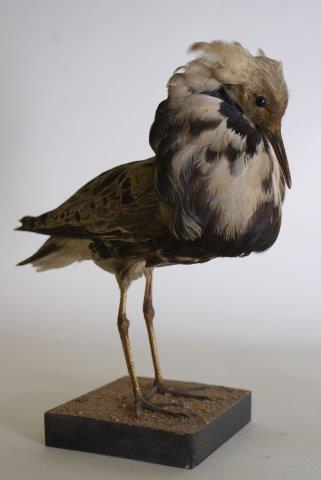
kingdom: Animalia
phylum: Chordata
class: Aves
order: Charadriiformes
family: Scolopacidae
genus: Calidris
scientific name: Calidris pugnax
